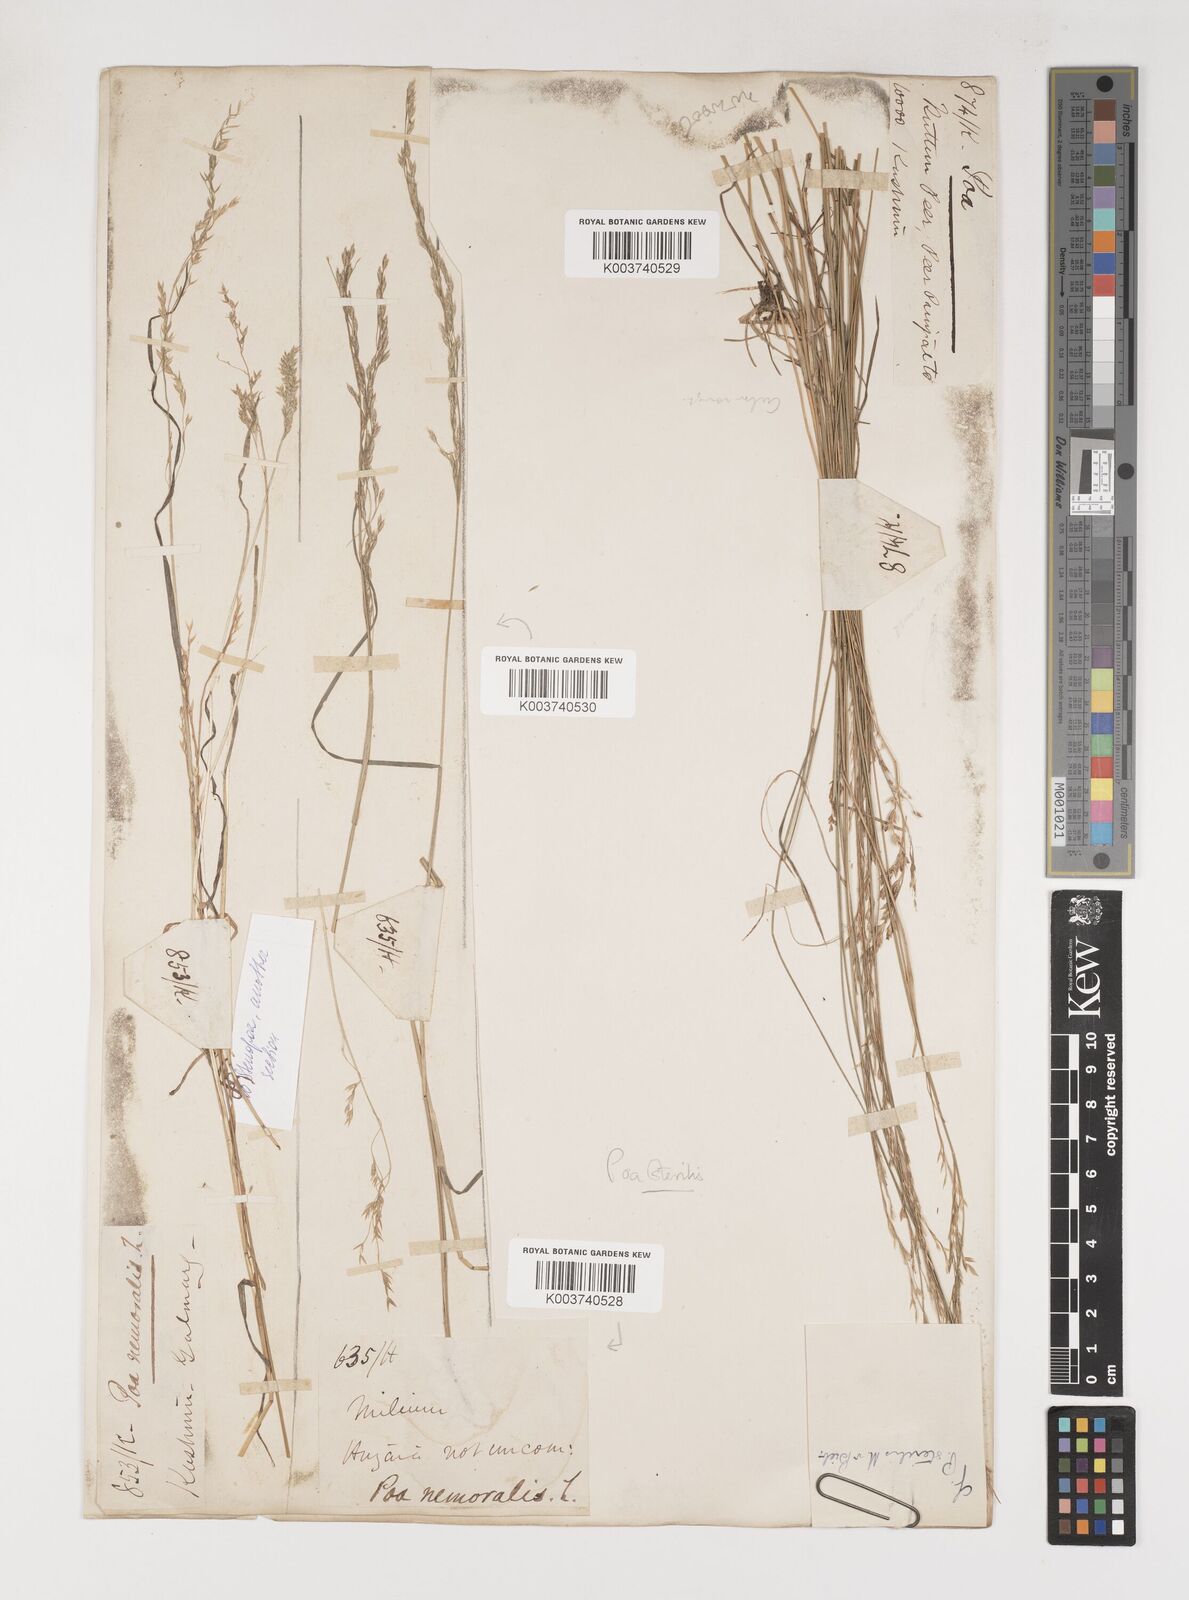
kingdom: Plantae
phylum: Tracheophyta
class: Liliopsida
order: Poales
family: Poaceae
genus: Poa
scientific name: Poa sterilis
